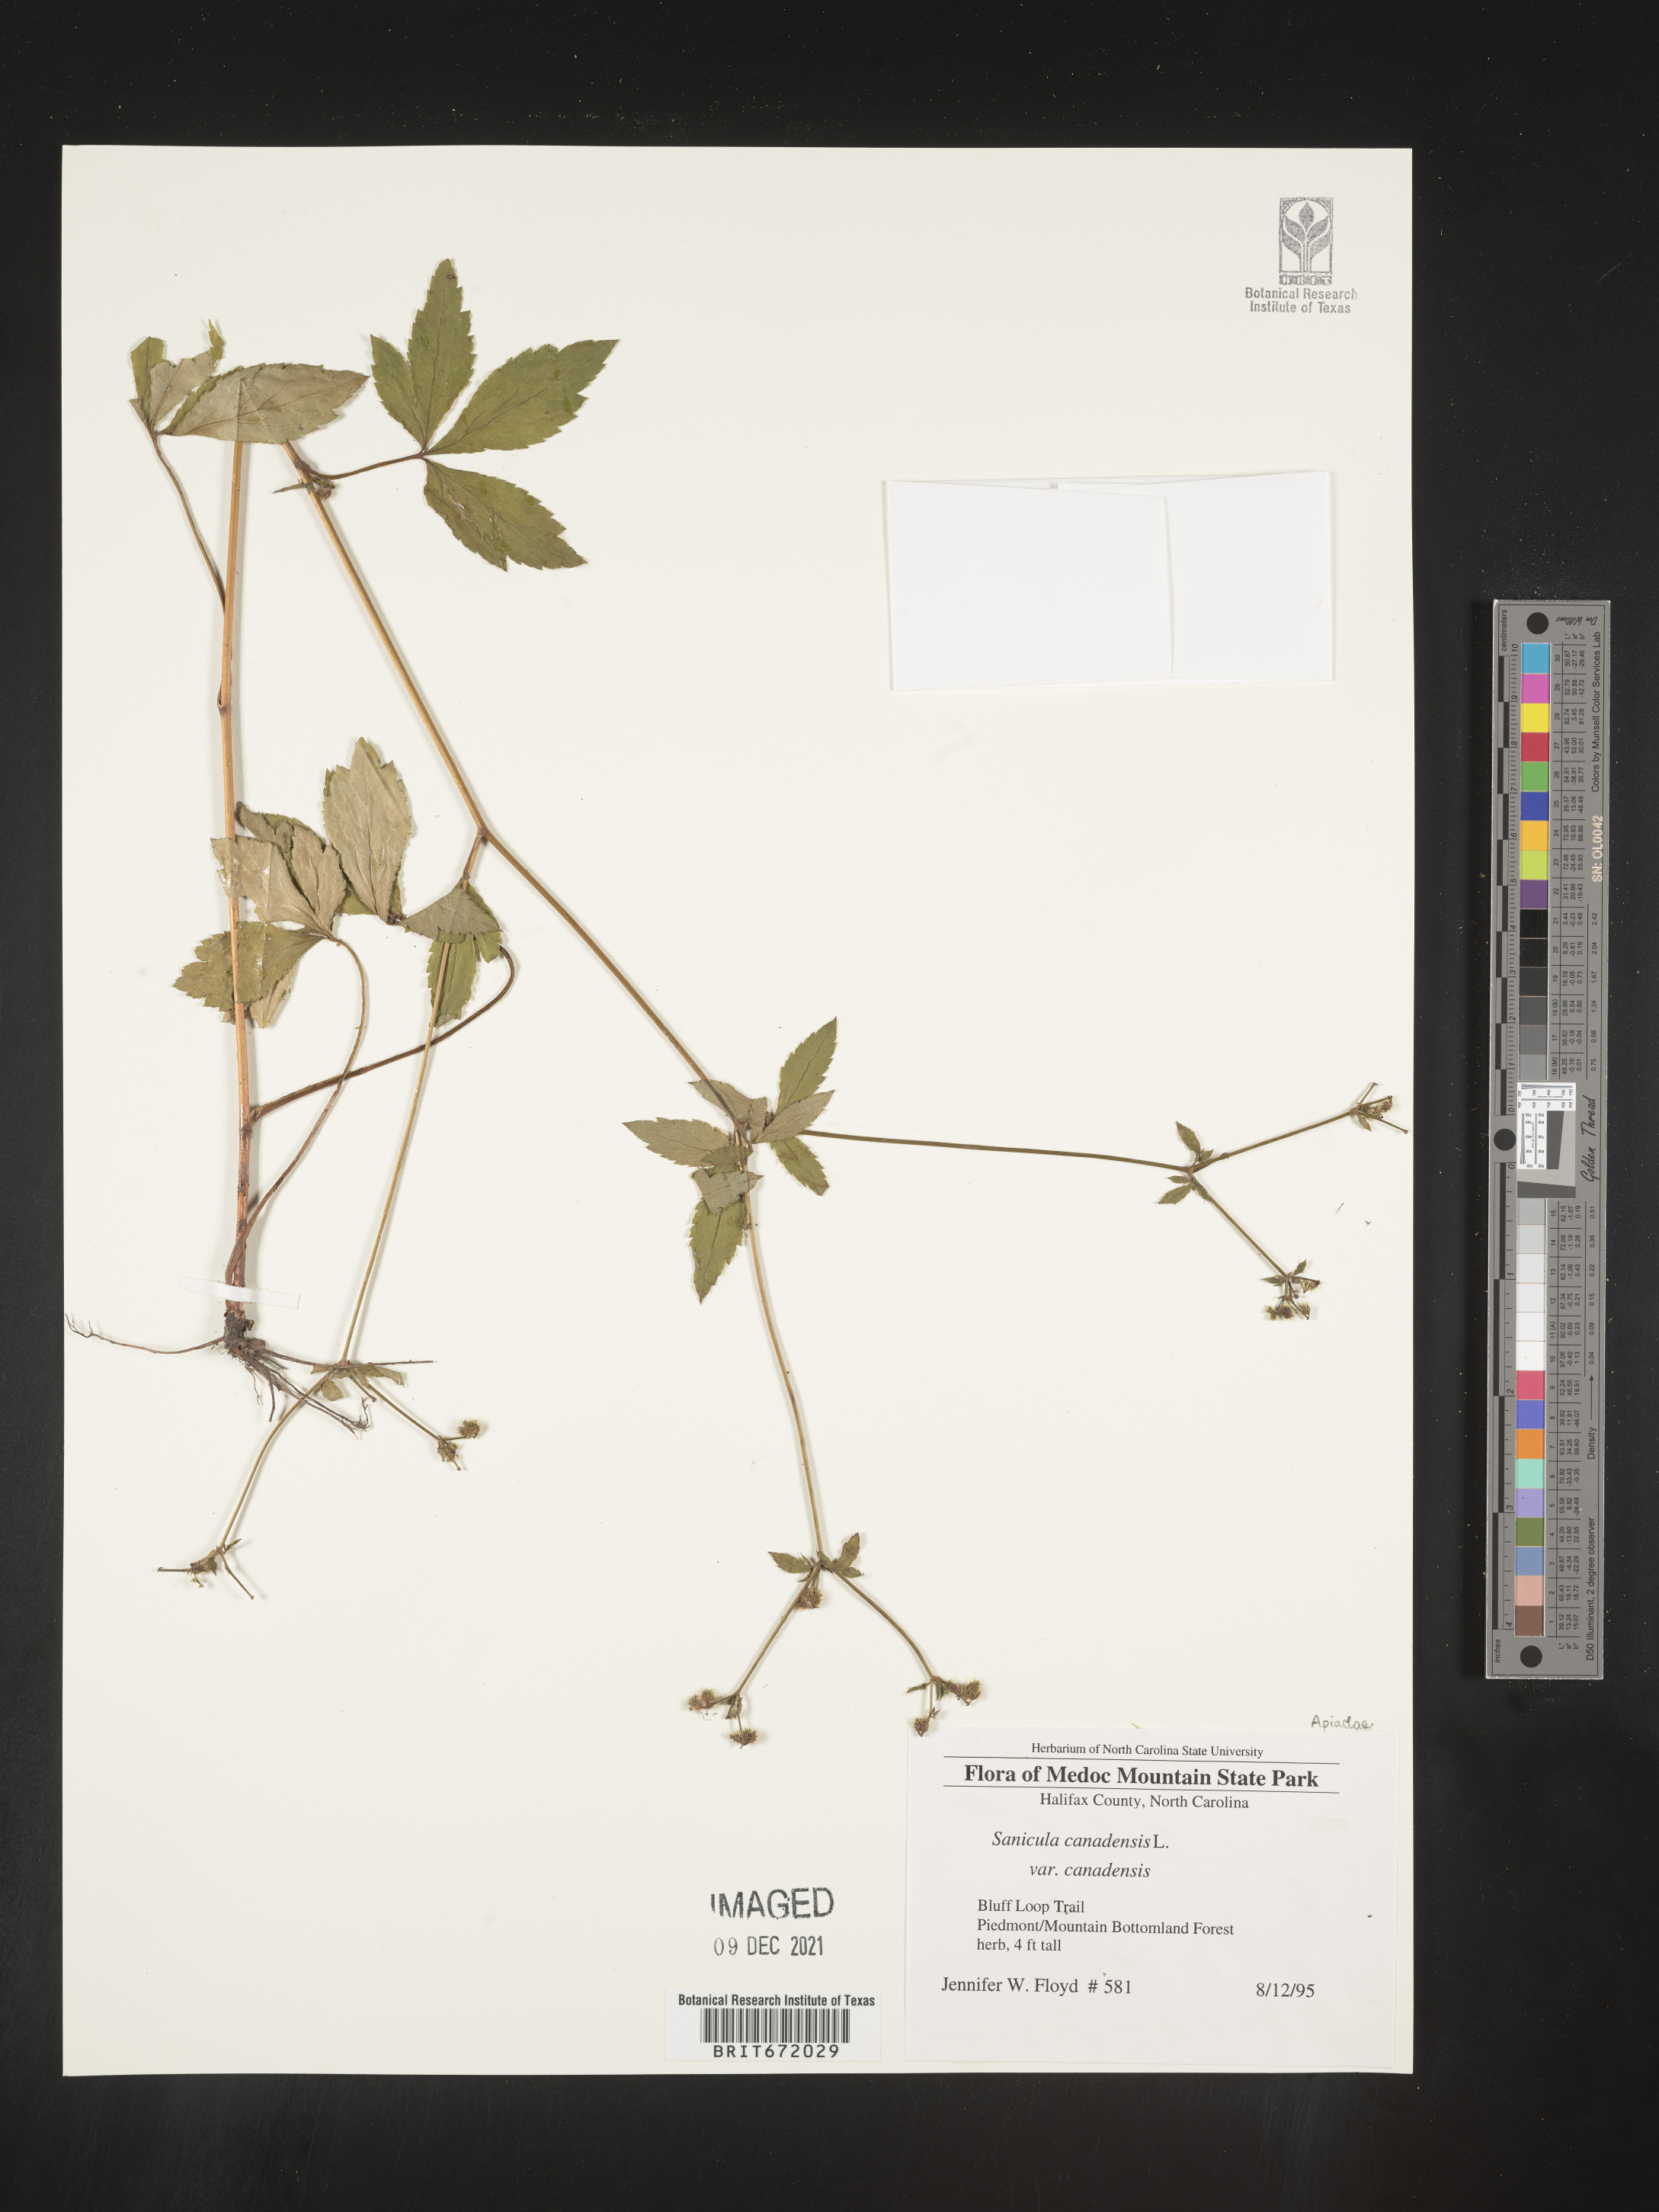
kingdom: Plantae
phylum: Tracheophyta
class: Magnoliopsida
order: Apiales
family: Apiaceae
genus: Sanicula
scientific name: Sanicula canadensis
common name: Canada sanicle
